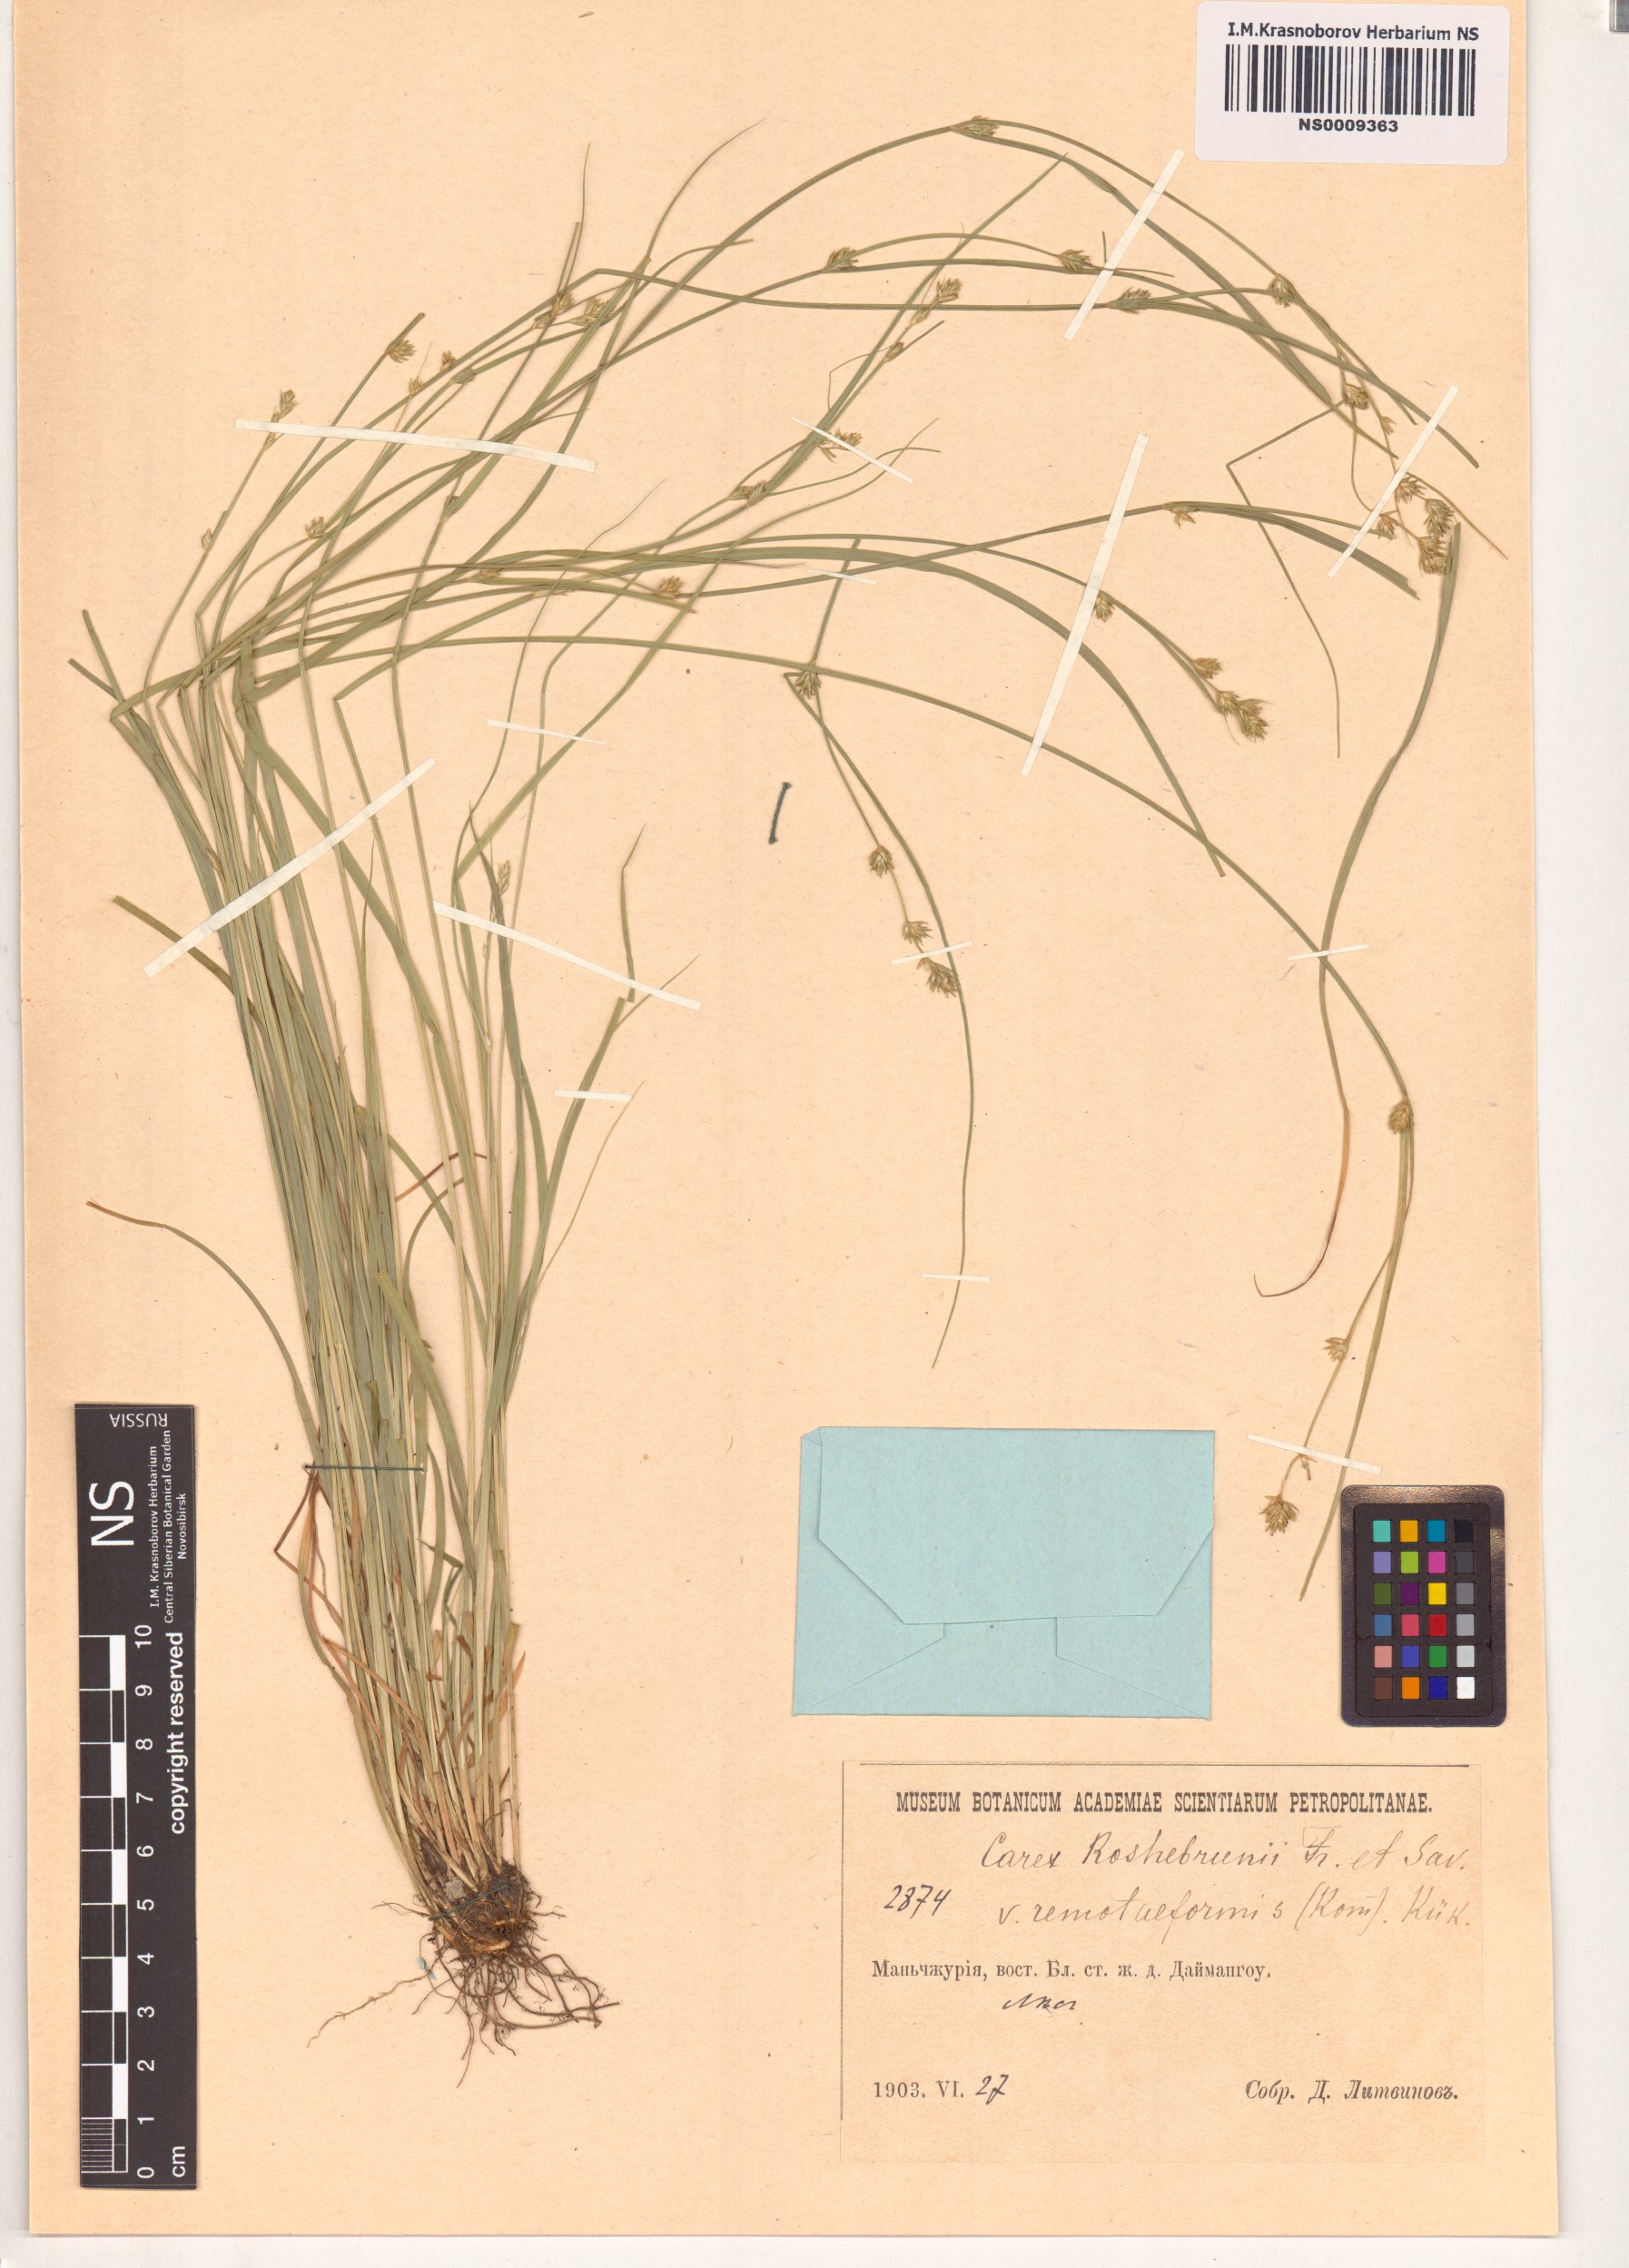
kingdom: Plantae
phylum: Tracheophyta
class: Liliopsida
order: Poales
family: Cyperaceae
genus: Carex
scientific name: Carex remotiuscula
